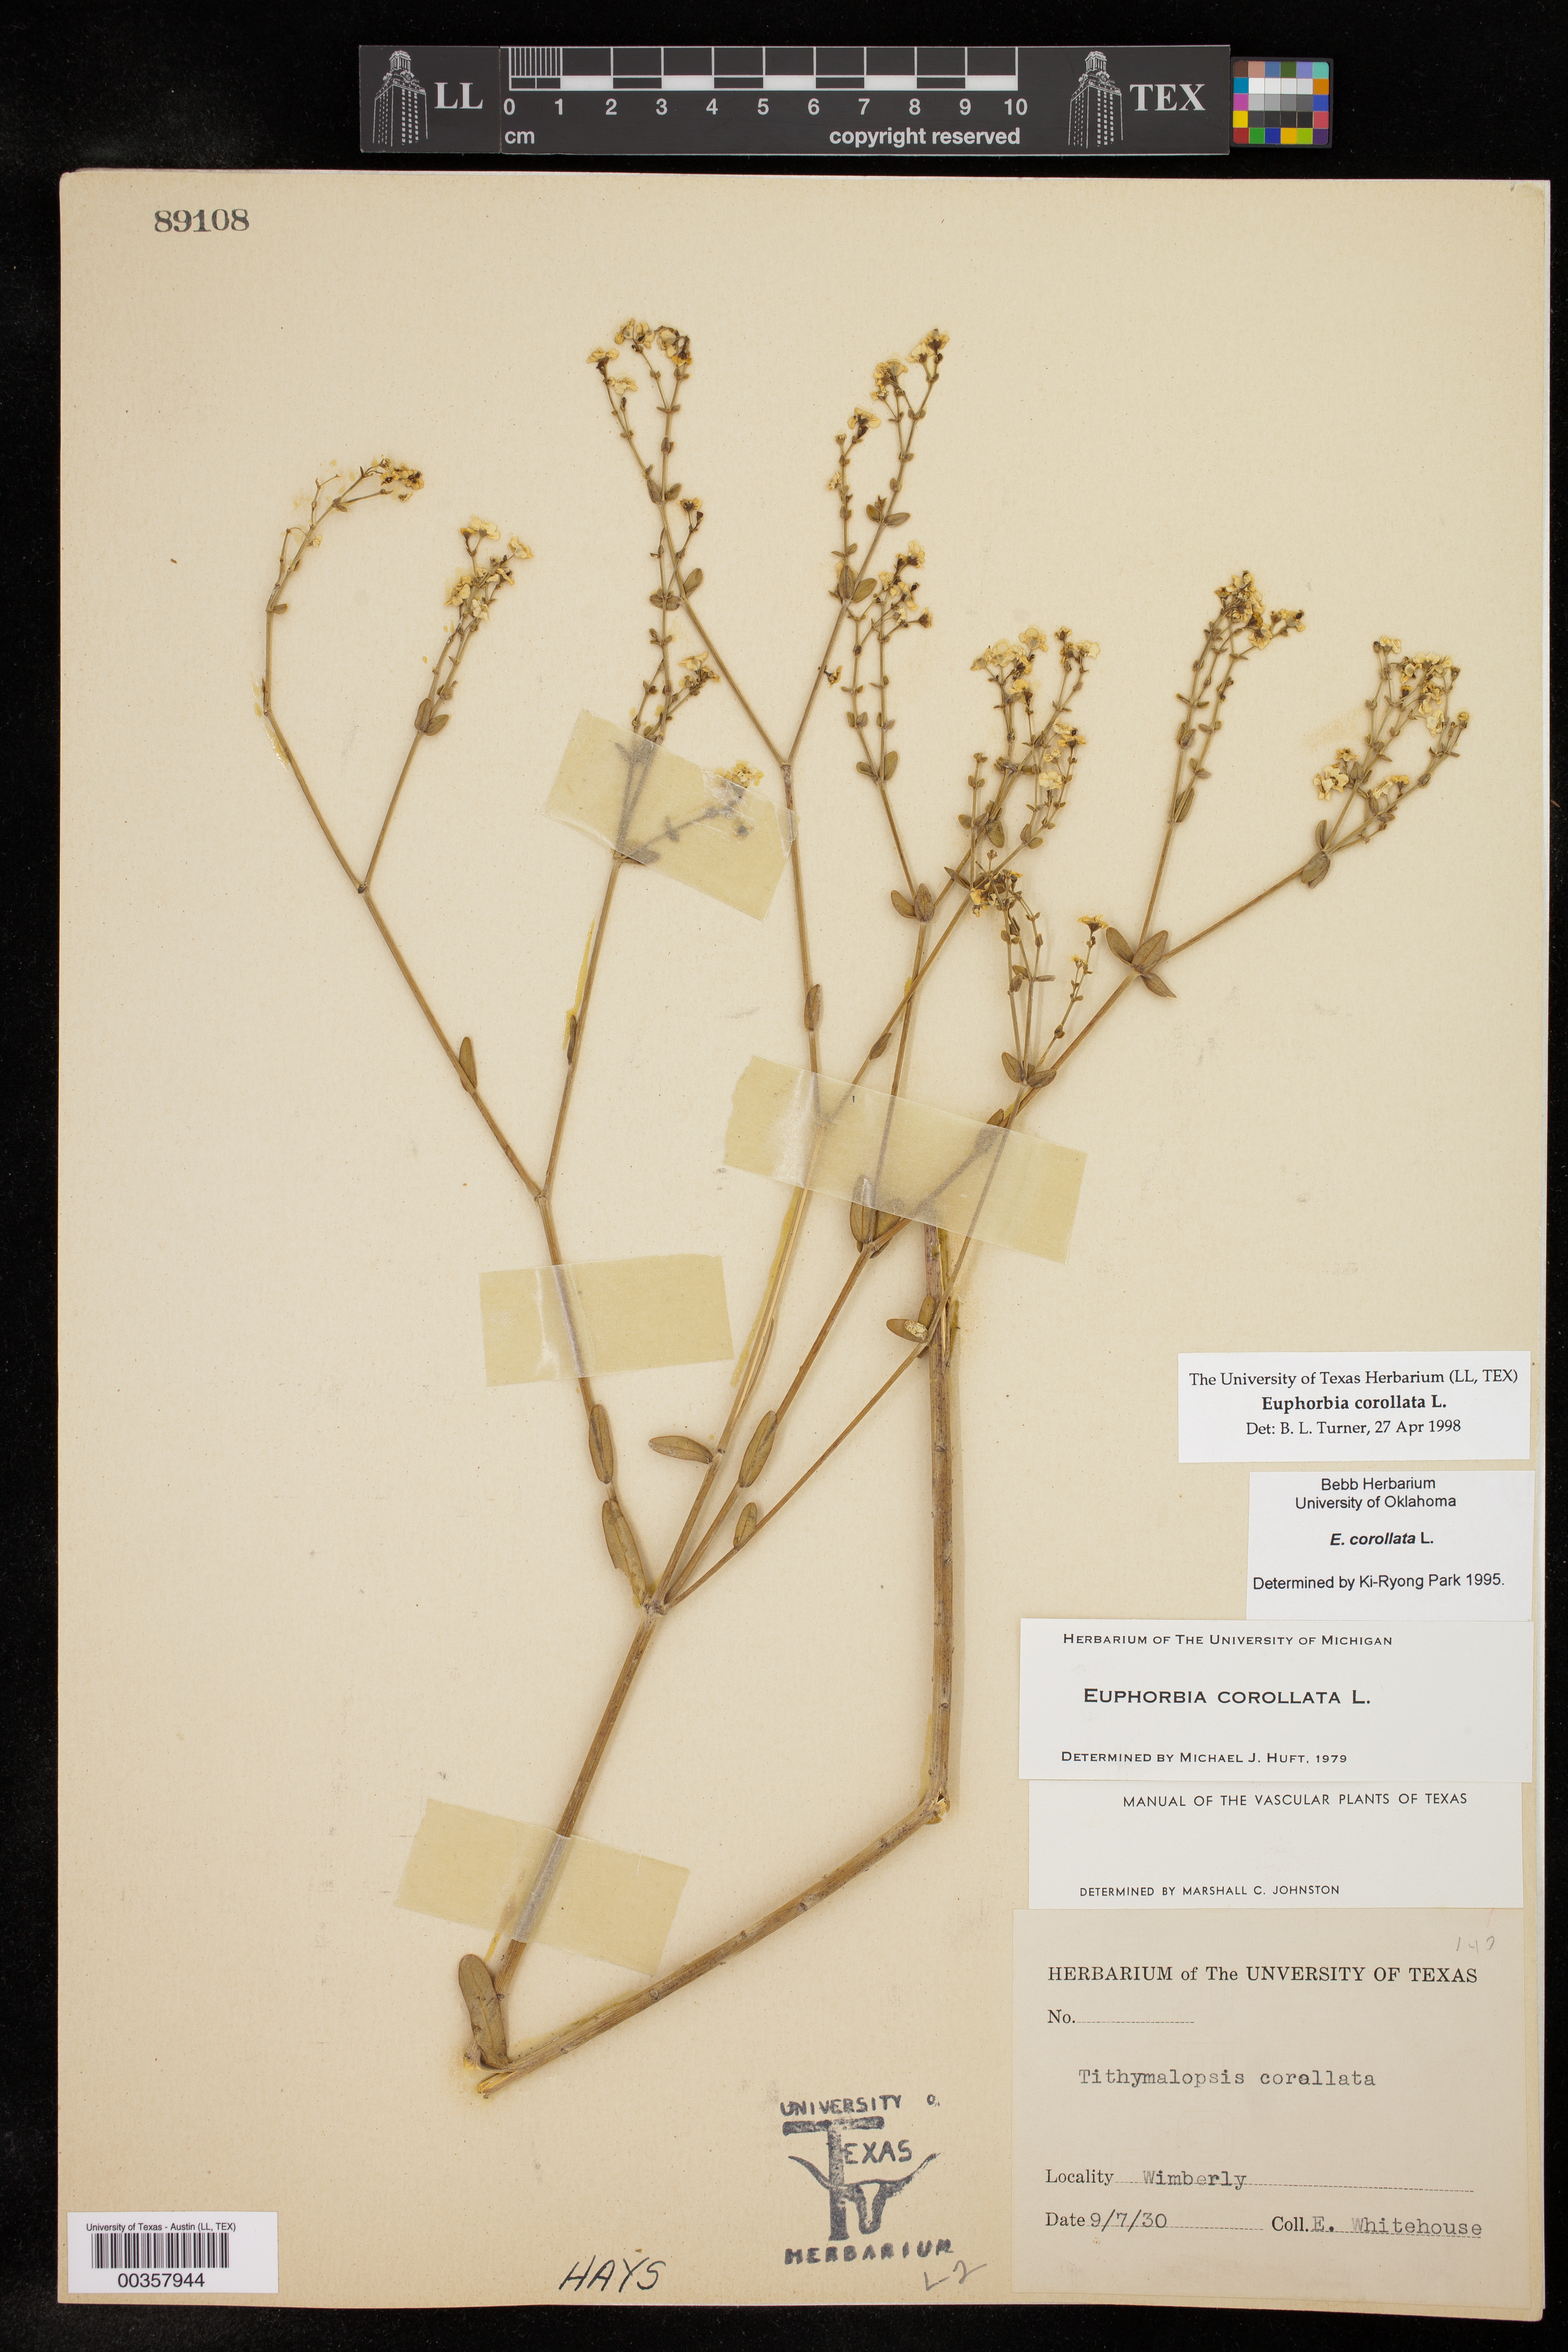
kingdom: Plantae
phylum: Tracheophyta
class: Magnoliopsida
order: Malpighiales
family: Euphorbiaceae
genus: Euphorbia
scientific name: Euphorbia corollata
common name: Flowering spurge
